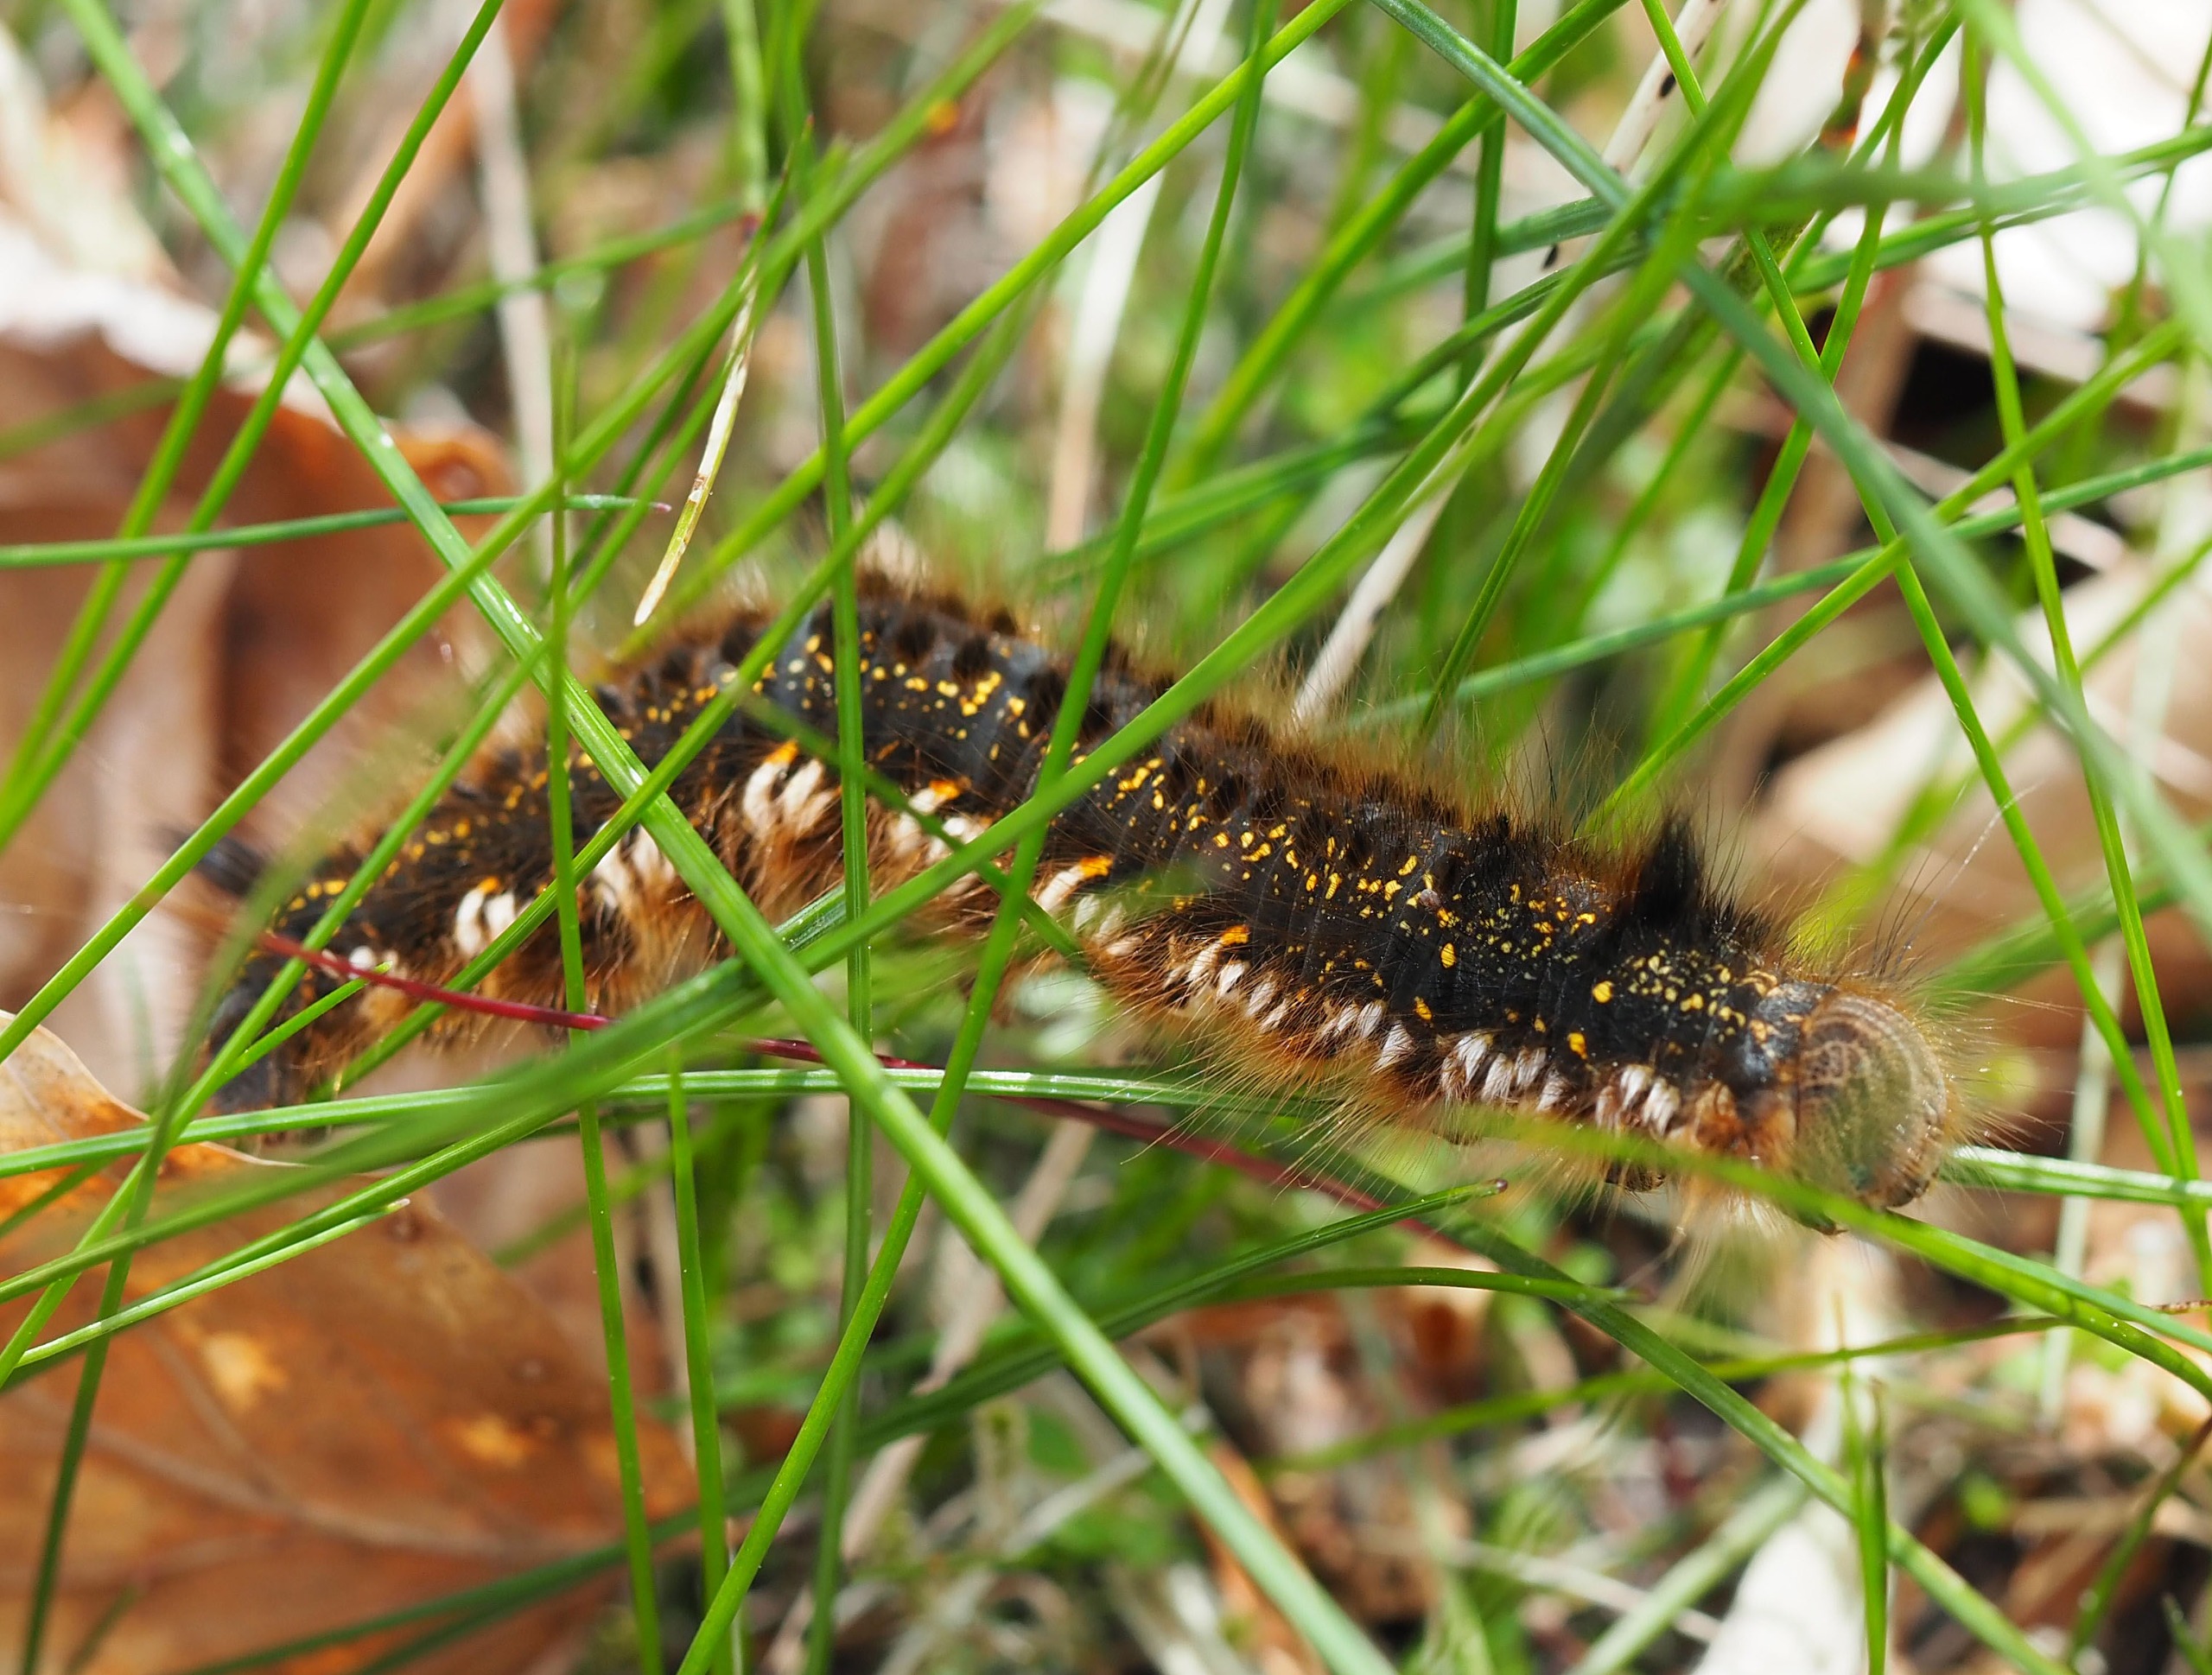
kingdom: Animalia
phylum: Arthropoda
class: Insecta
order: Lepidoptera
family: Lasiocampidae
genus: Euthrix
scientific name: Euthrix potatoria
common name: Græsspinder
